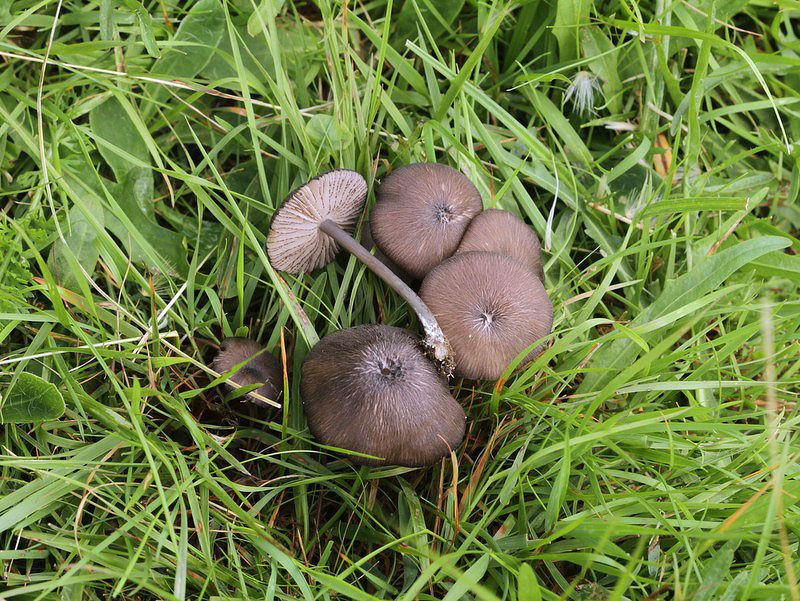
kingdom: Fungi
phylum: Basidiomycota
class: Agaricomycetes
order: Agaricales
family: Entolomataceae
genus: Entoloma
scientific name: Entoloma
